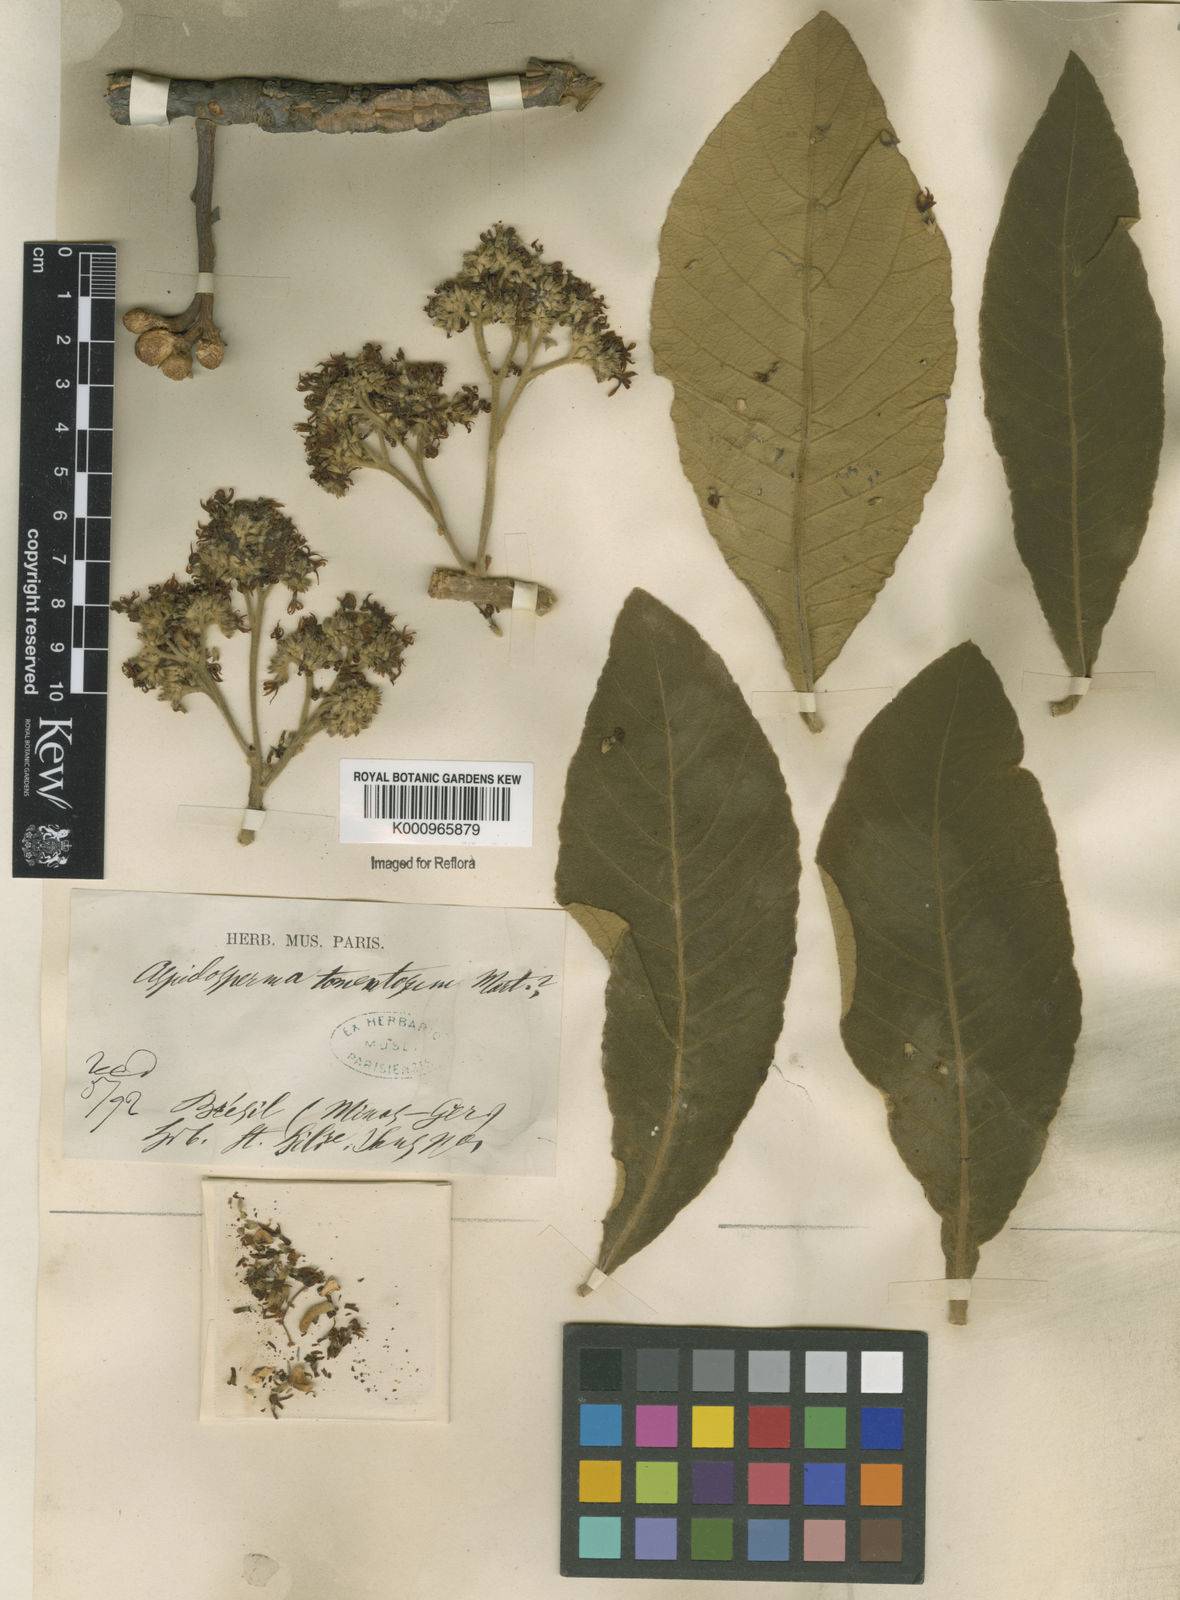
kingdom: Plantae
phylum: Tracheophyta
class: Magnoliopsida
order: Gentianales
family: Apocynaceae
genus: Aspidosperma
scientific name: Aspidosperma tomentosum
